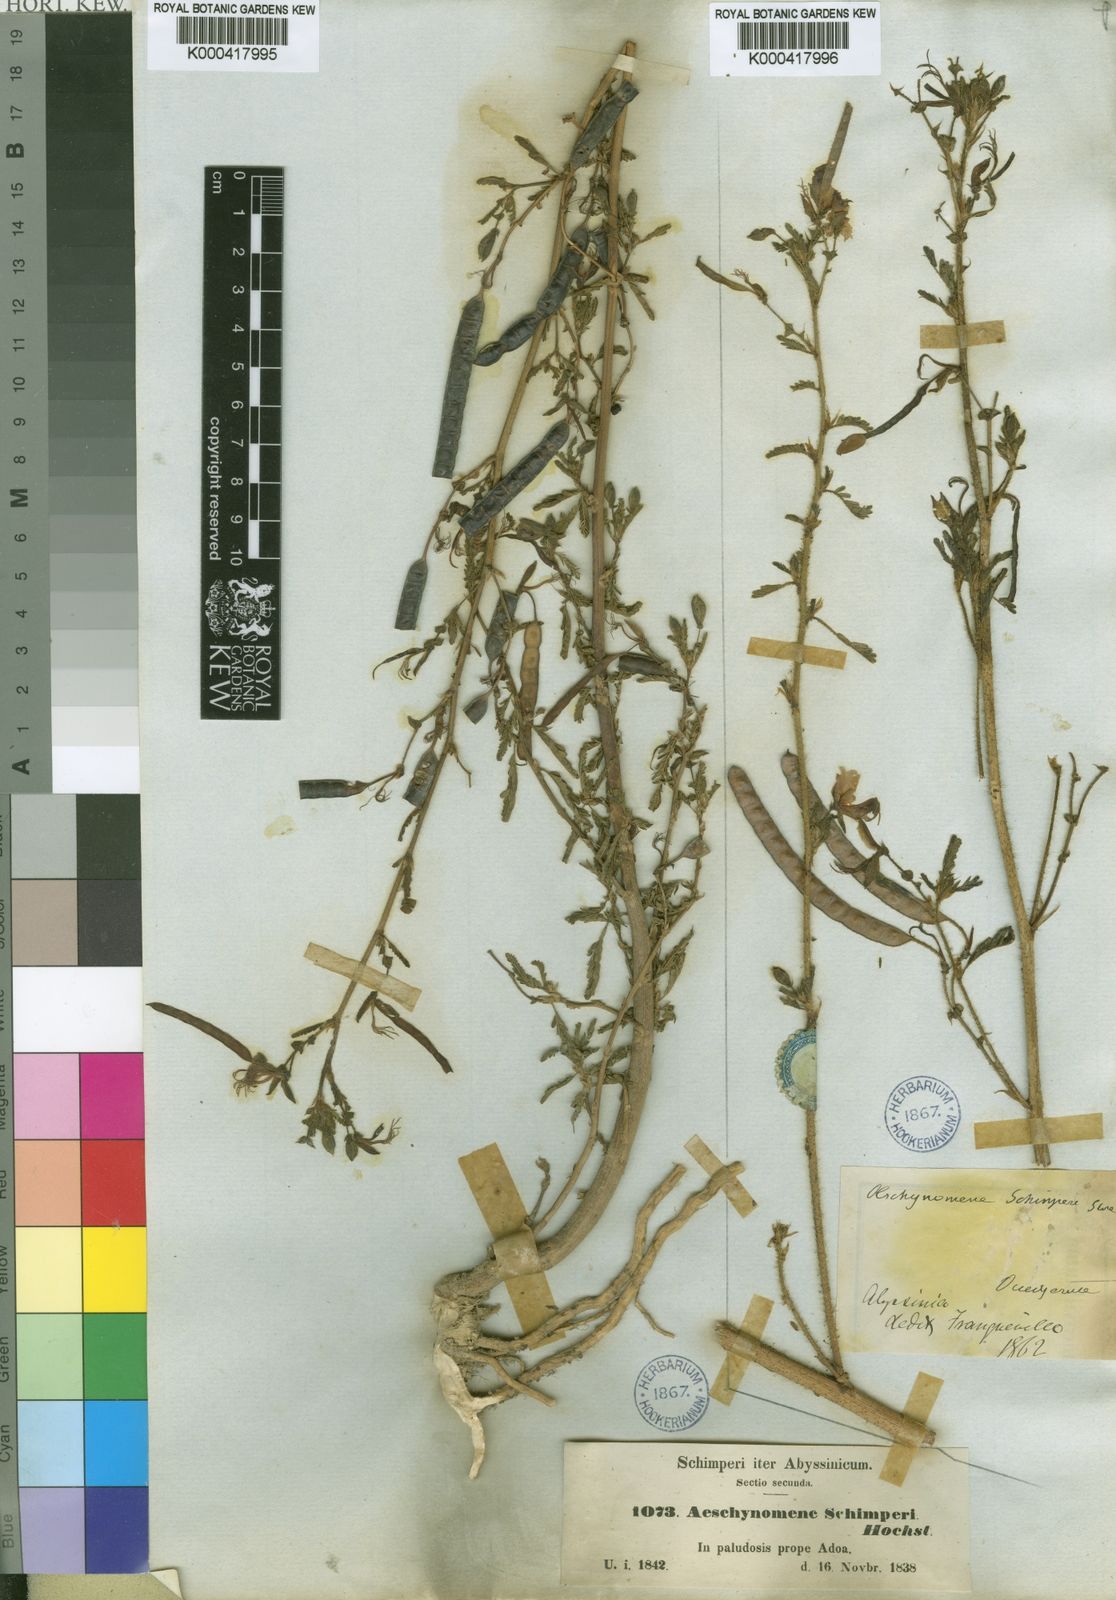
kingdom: Plantae
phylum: Tracheophyta
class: Magnoliopsida
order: Fabales
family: Fabaceae
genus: Aeschynomene
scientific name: Aeschynomene
